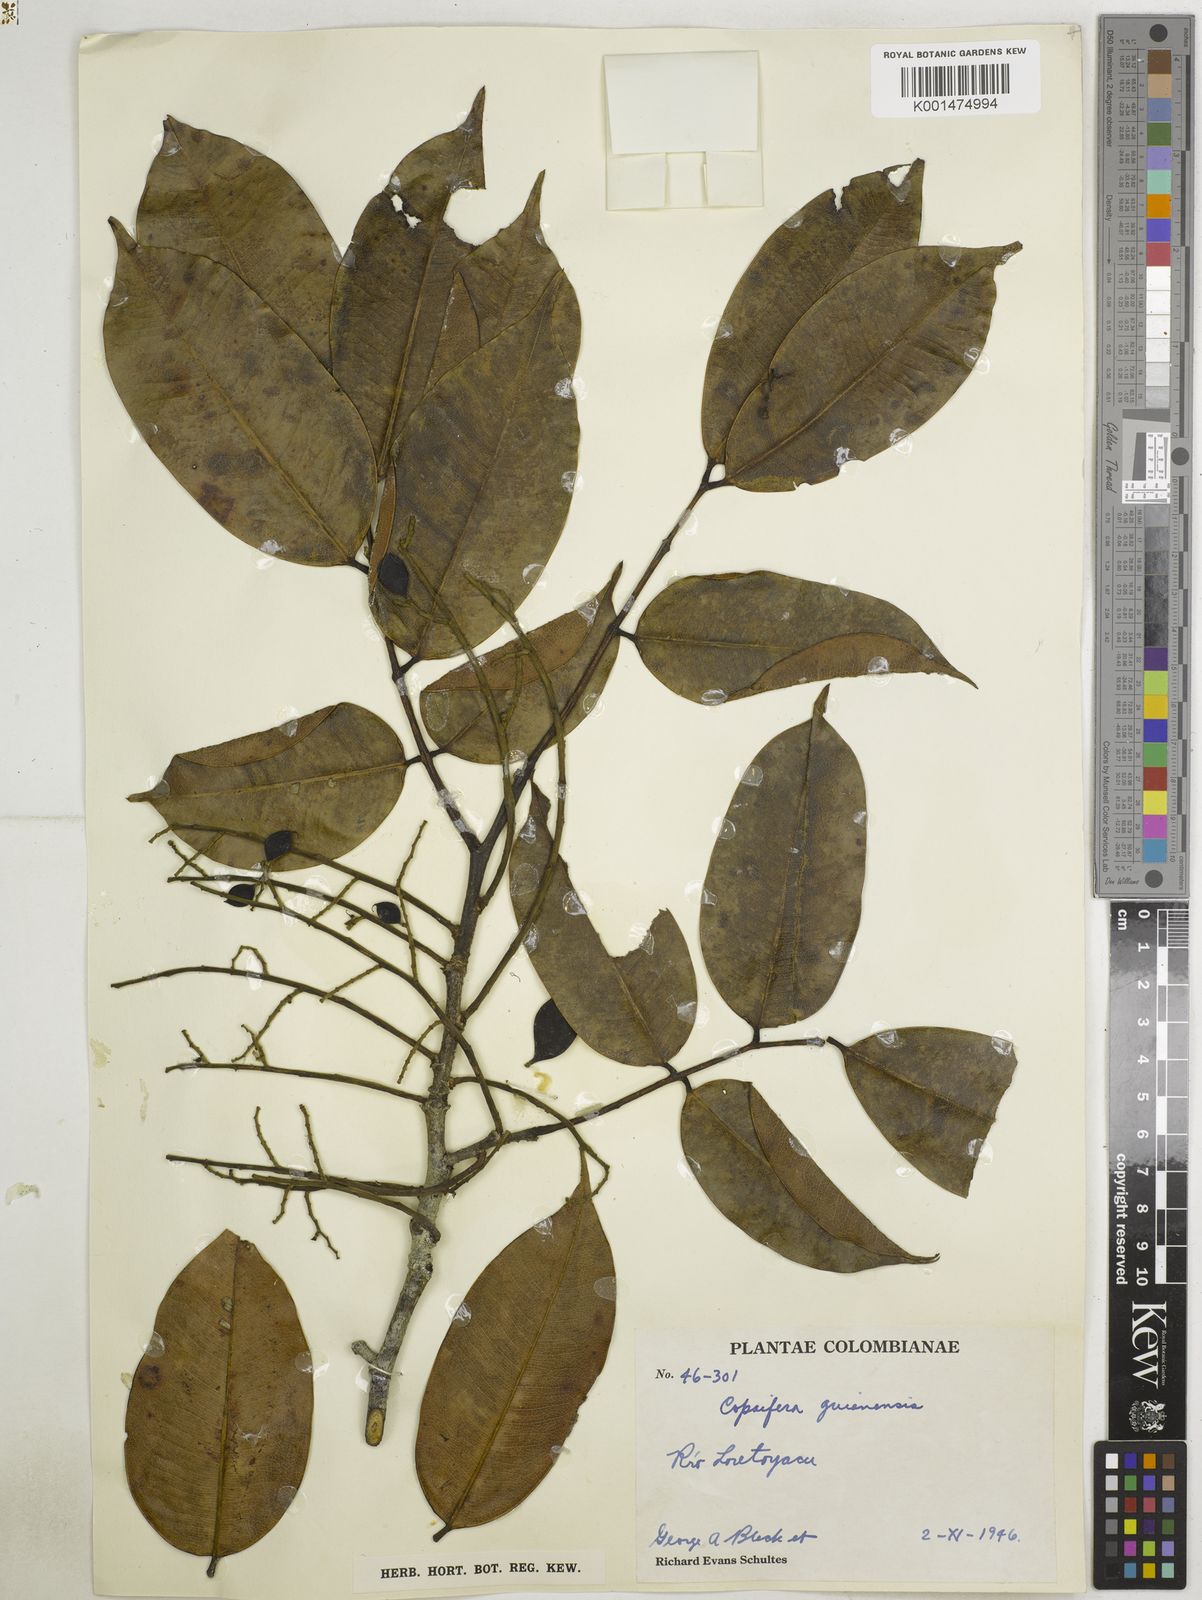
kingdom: Plantae
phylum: Tracheophyta
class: Magnoliopsida
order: Fabales
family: Fabaceae
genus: Copaifera
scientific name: Copaifera guianensis
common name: Copaiba
